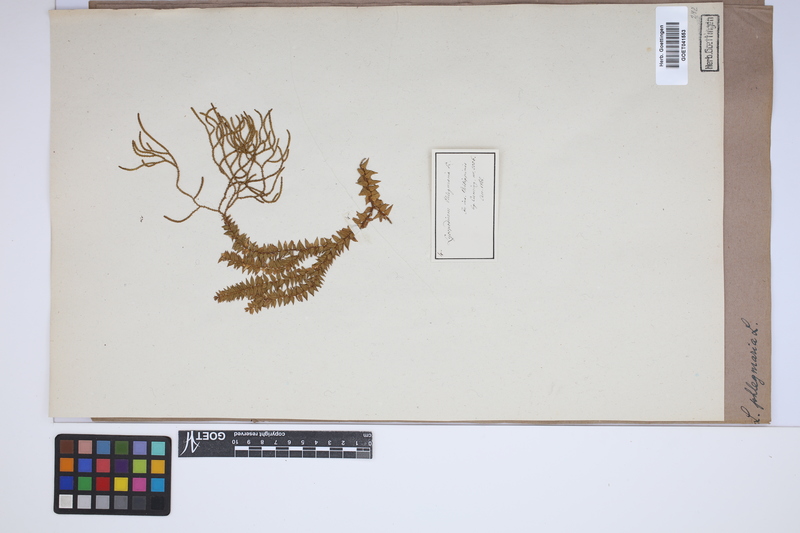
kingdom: Plantae
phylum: Tracheophyta
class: Lycopodiopsida
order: Lycopodiales
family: Lycopodiaceae
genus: Phlegmariurus
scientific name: Phlegmariurus phlegmaria
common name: Coarse tassel-fern
